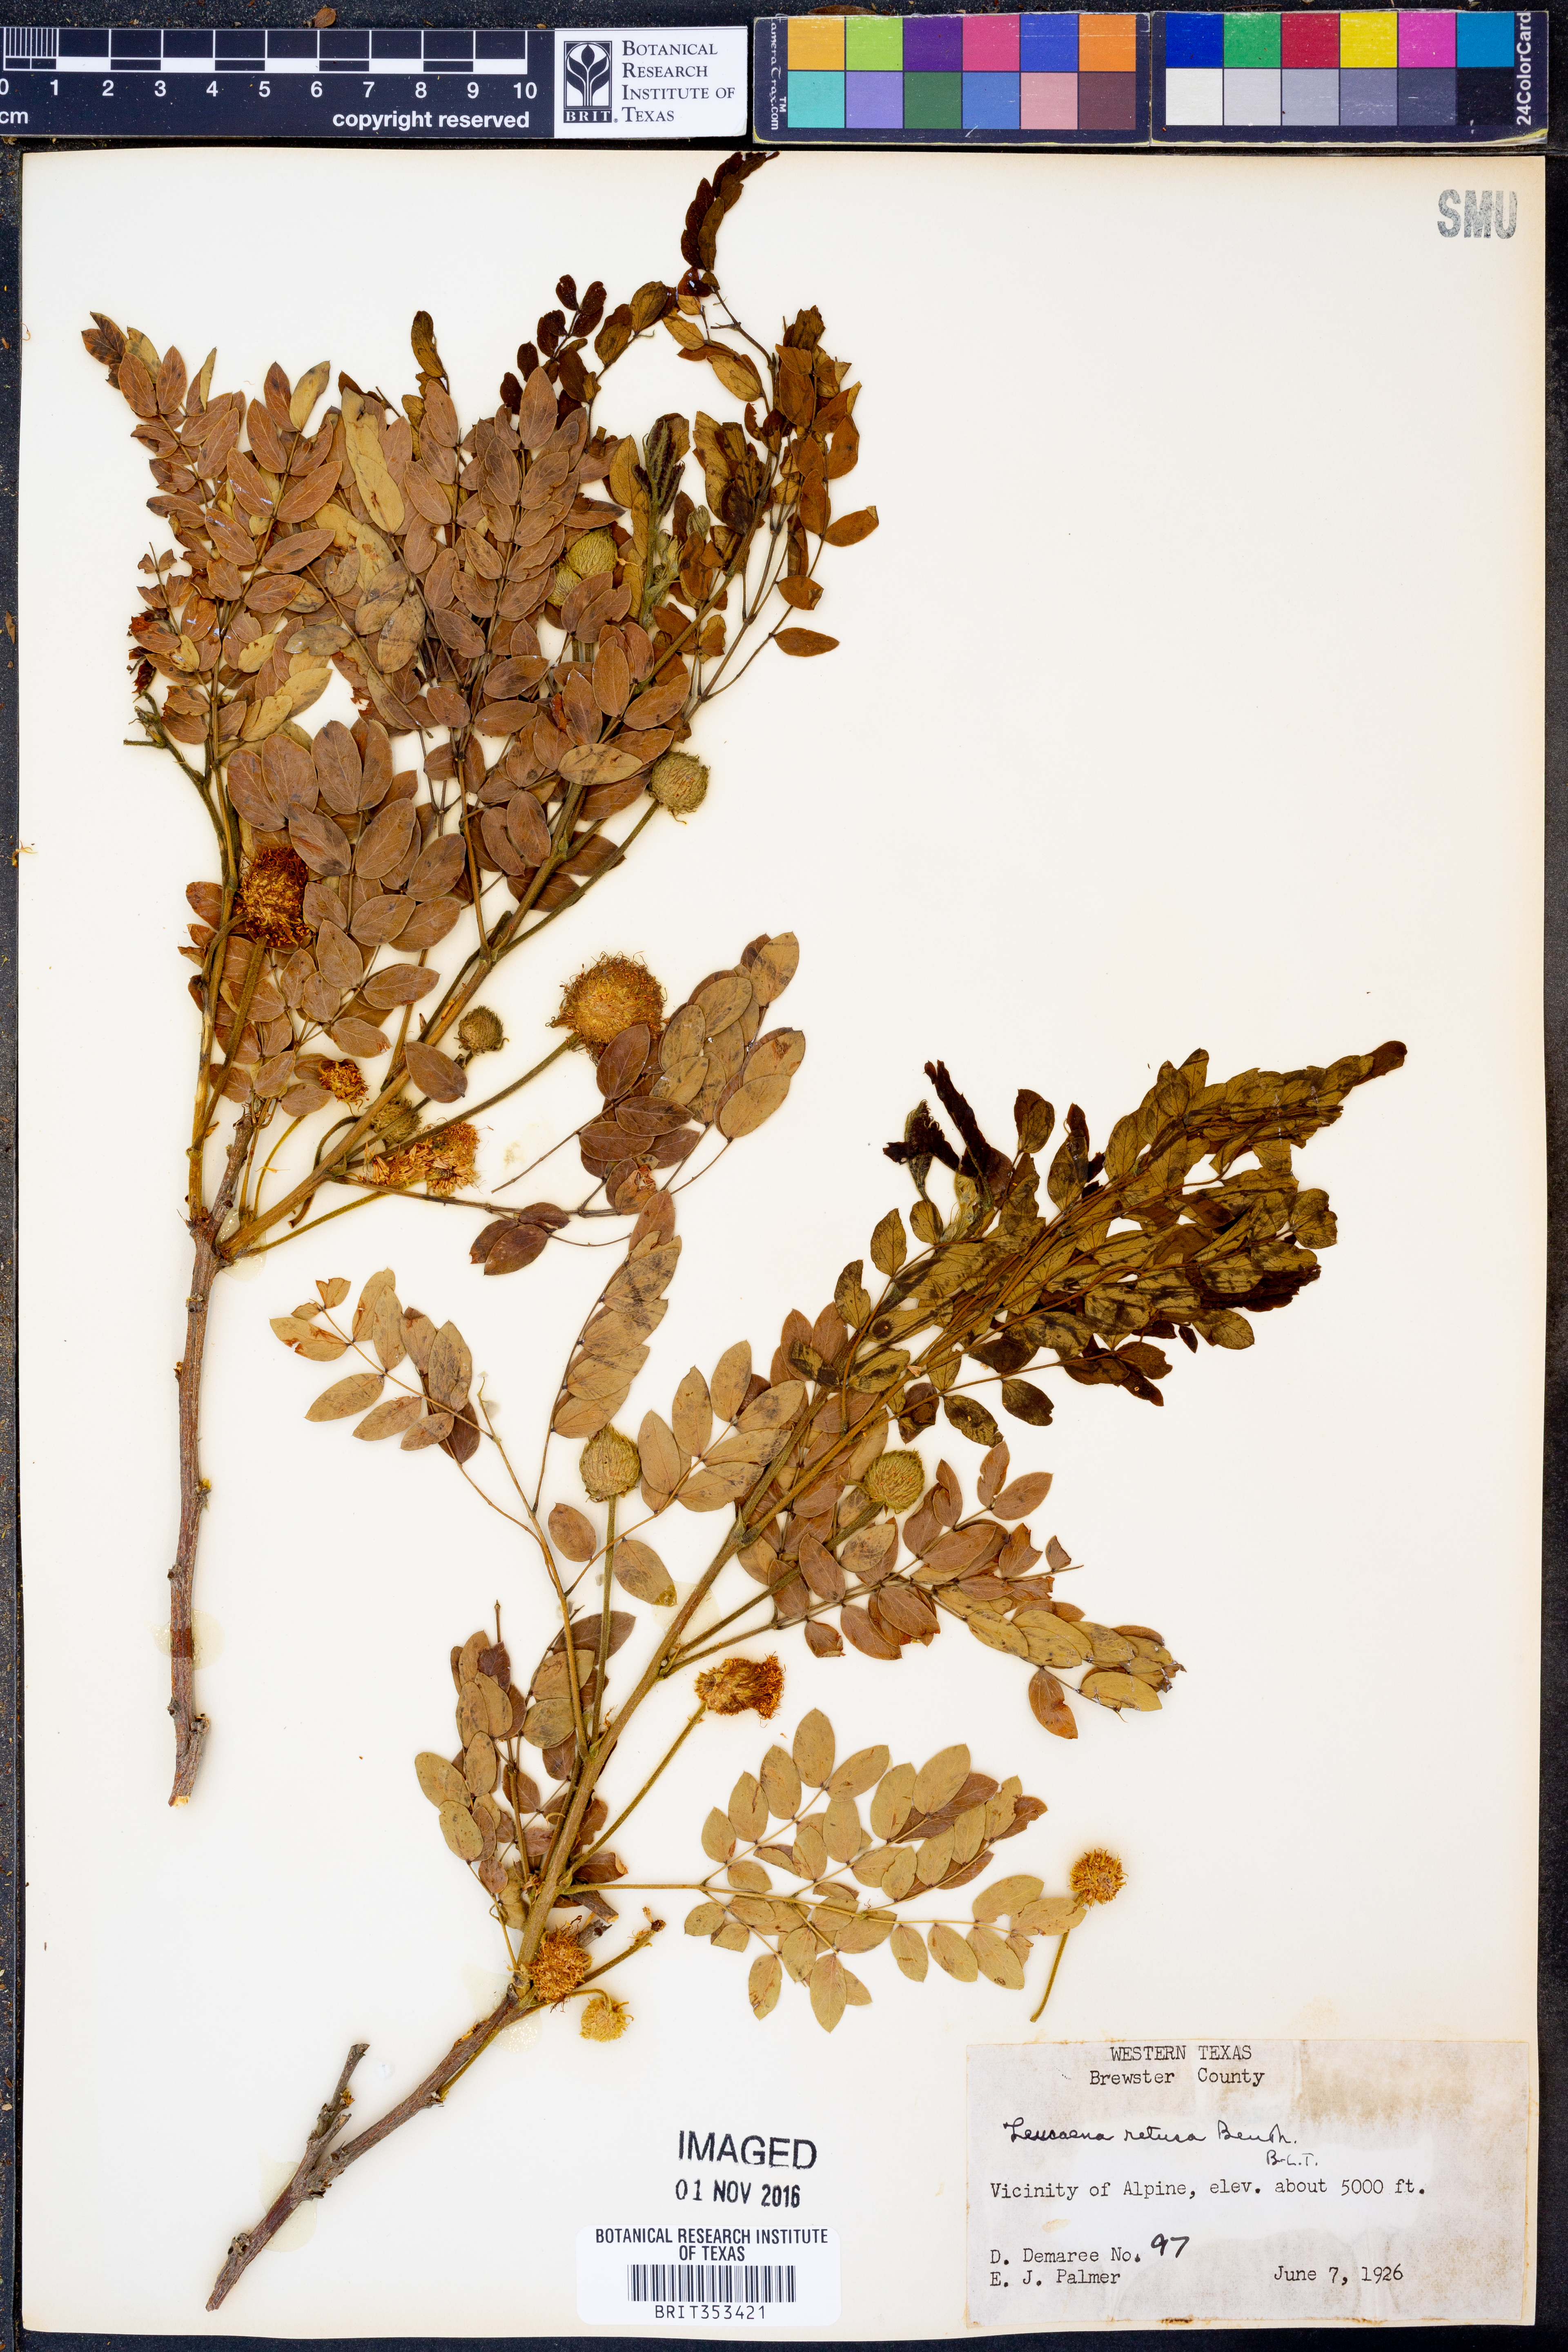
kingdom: Plantae
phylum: Tracheophyta
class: Magnoliopsida
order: Fabales
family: Fabaceae
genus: Leucaena
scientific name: Leucaena retusa
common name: Littleleaf leadtree
